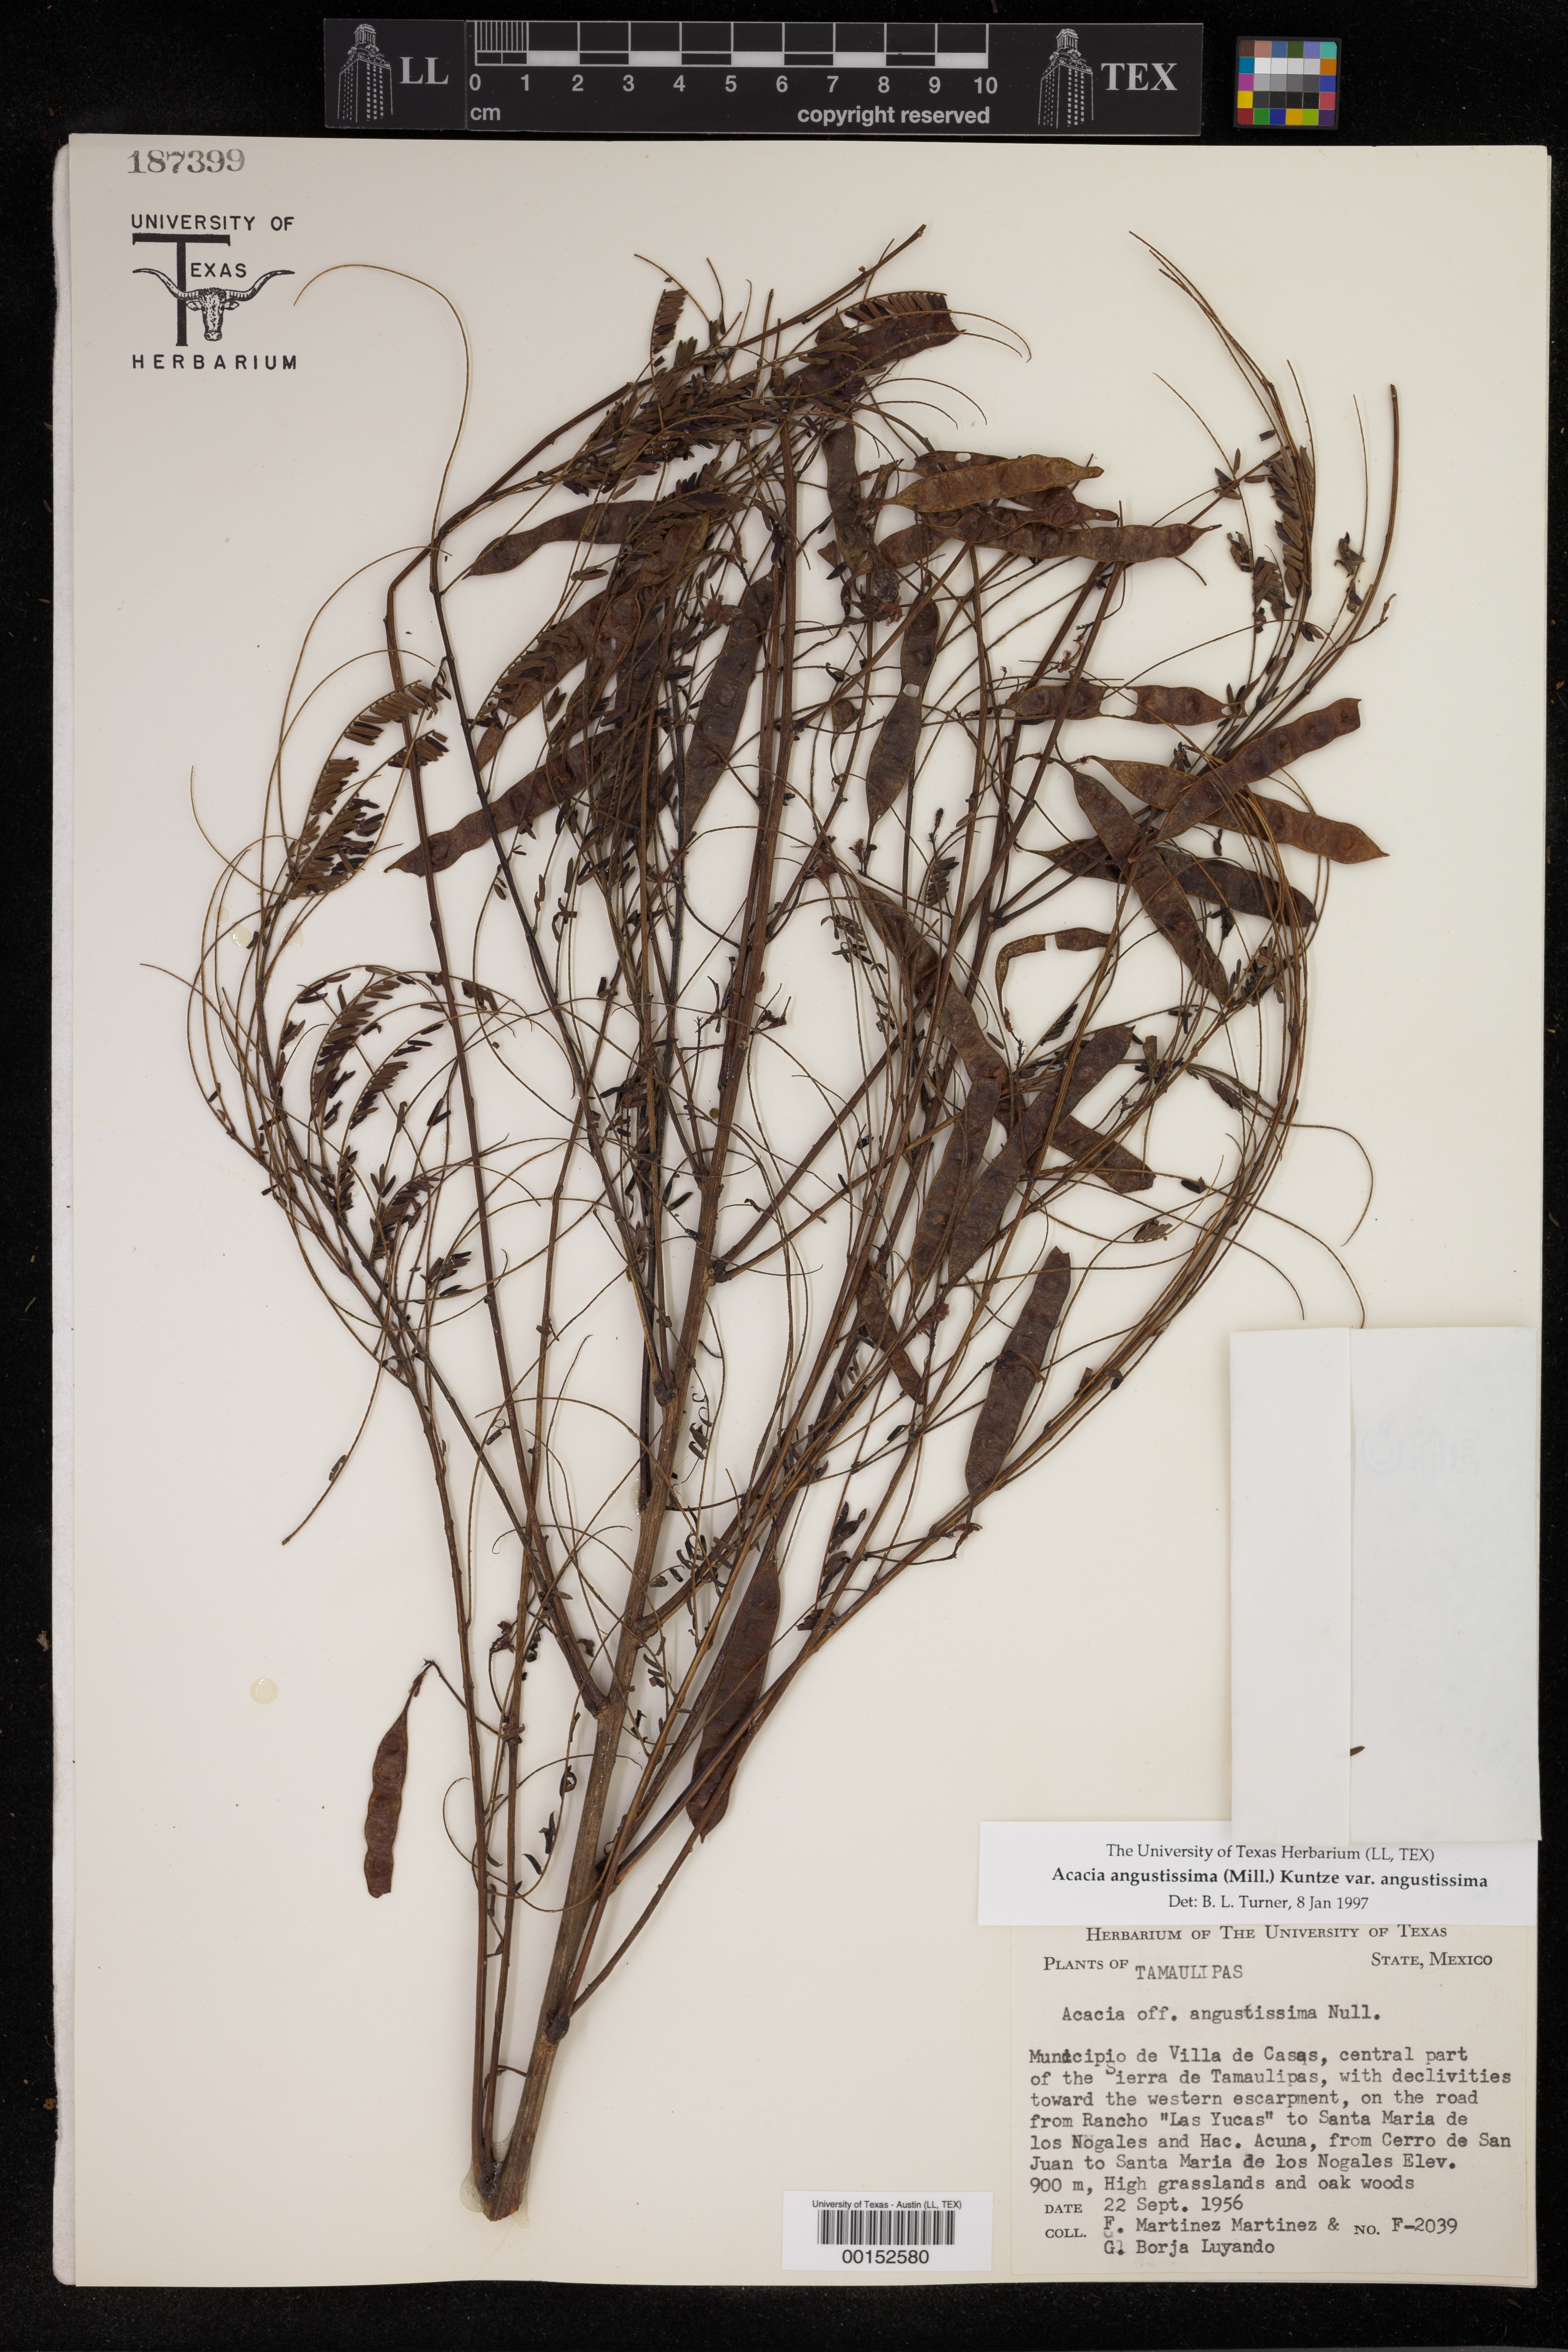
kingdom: Plantae
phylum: Tracheophyta
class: Magnoliopsida
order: Fabales
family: Fabaceae
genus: Acaciella
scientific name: Acaciella angustissima
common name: Prairie acacia
